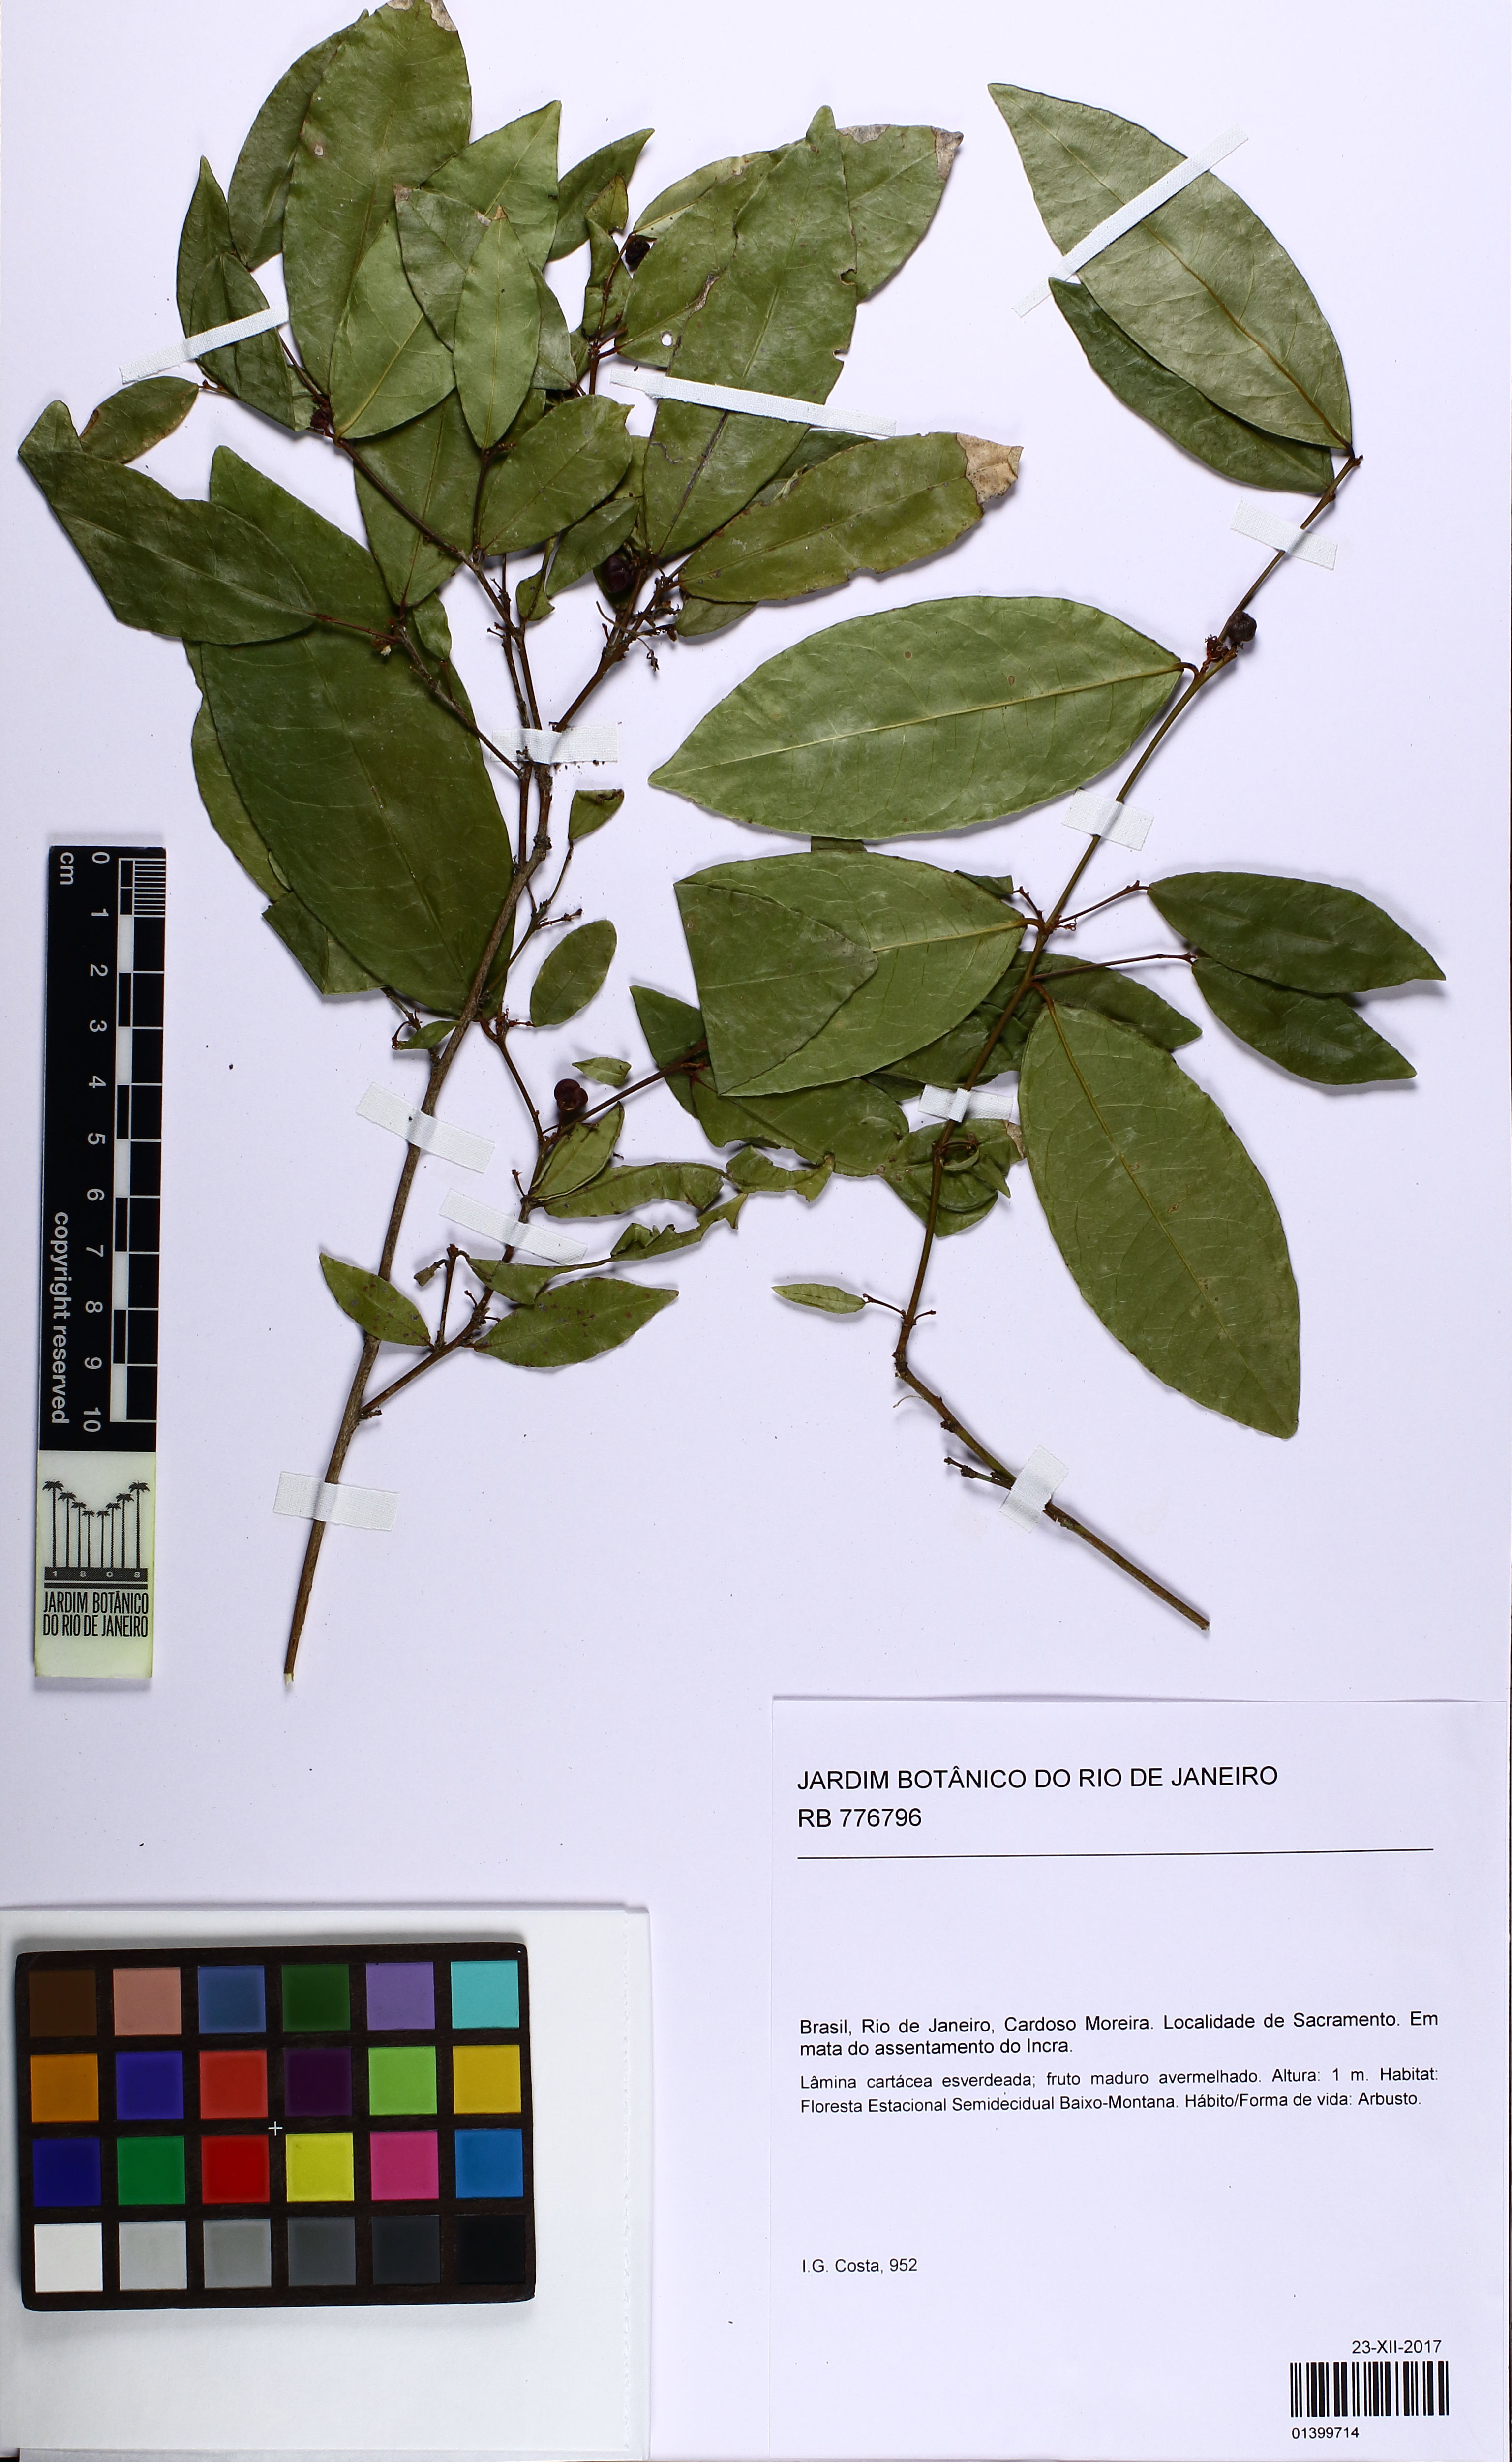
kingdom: Plantae
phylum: Tracheophyta
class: Magnoliopsida
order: Malpighiales
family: Euphorbiaceae
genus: Sebastiania
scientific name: Sebastiania
